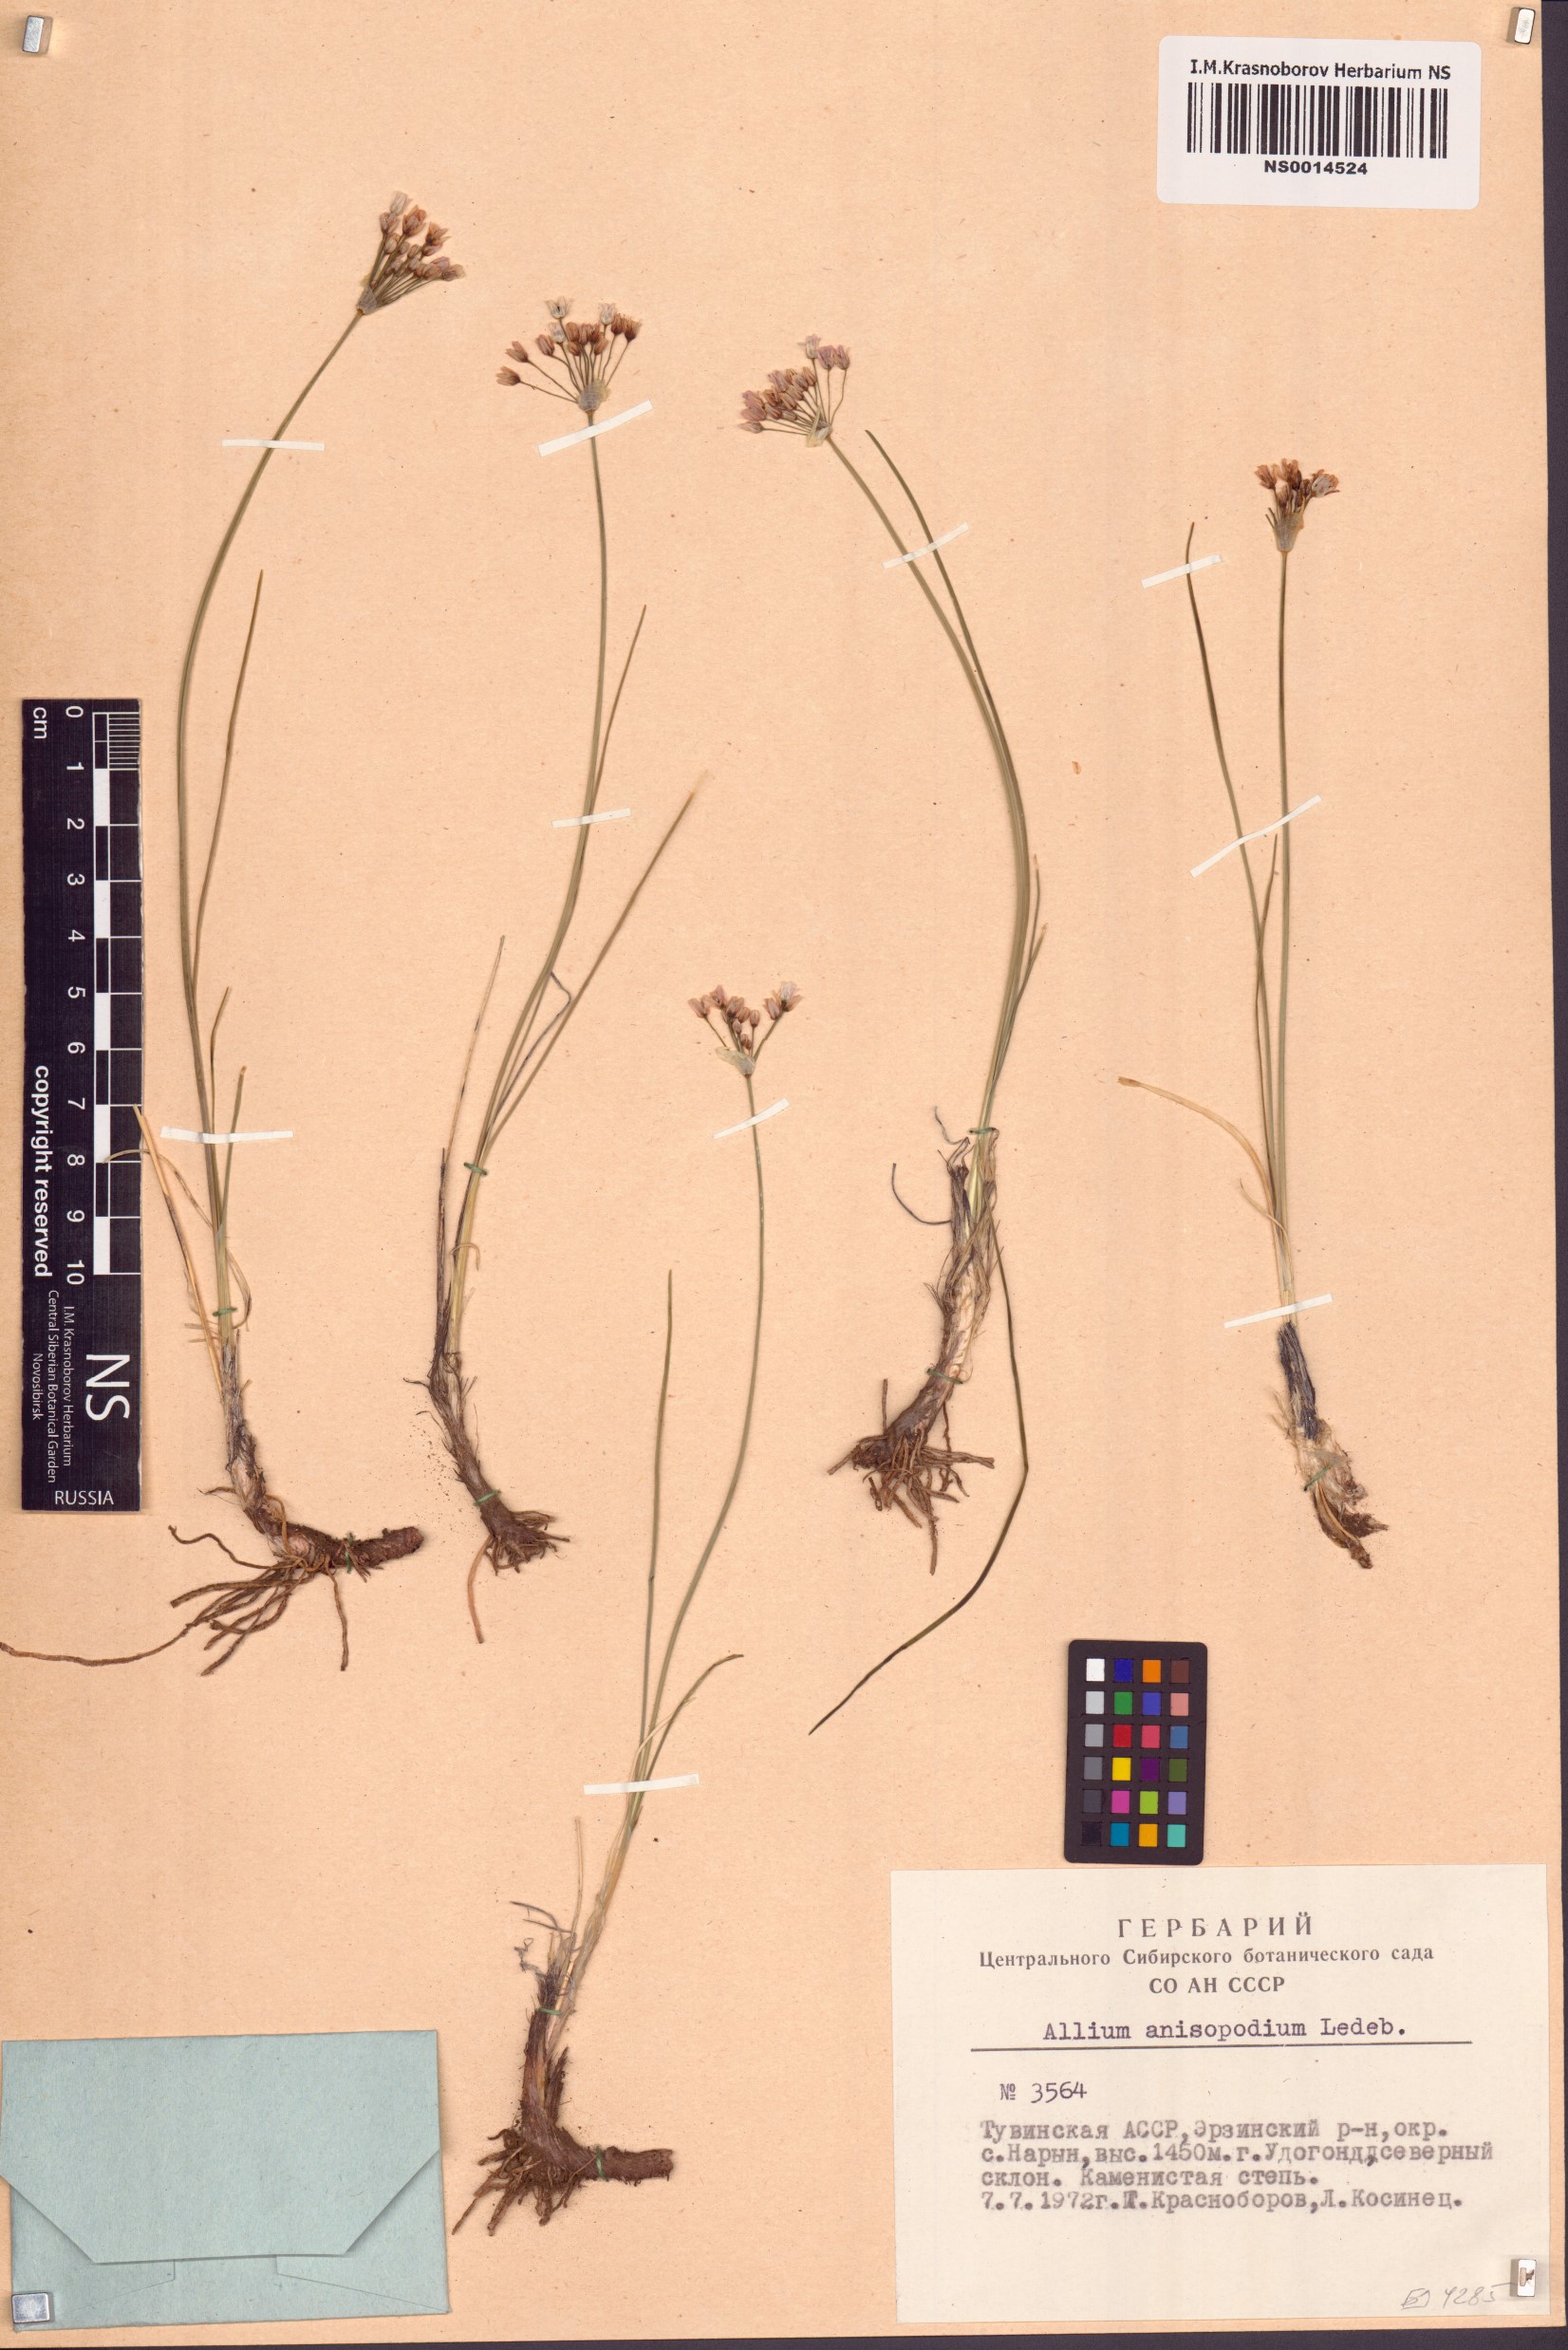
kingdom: Plantae
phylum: Tracheophyta
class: Liliopsida
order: Asparagales
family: Amaryllidaceae
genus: Allium
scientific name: Allium anisopodium
